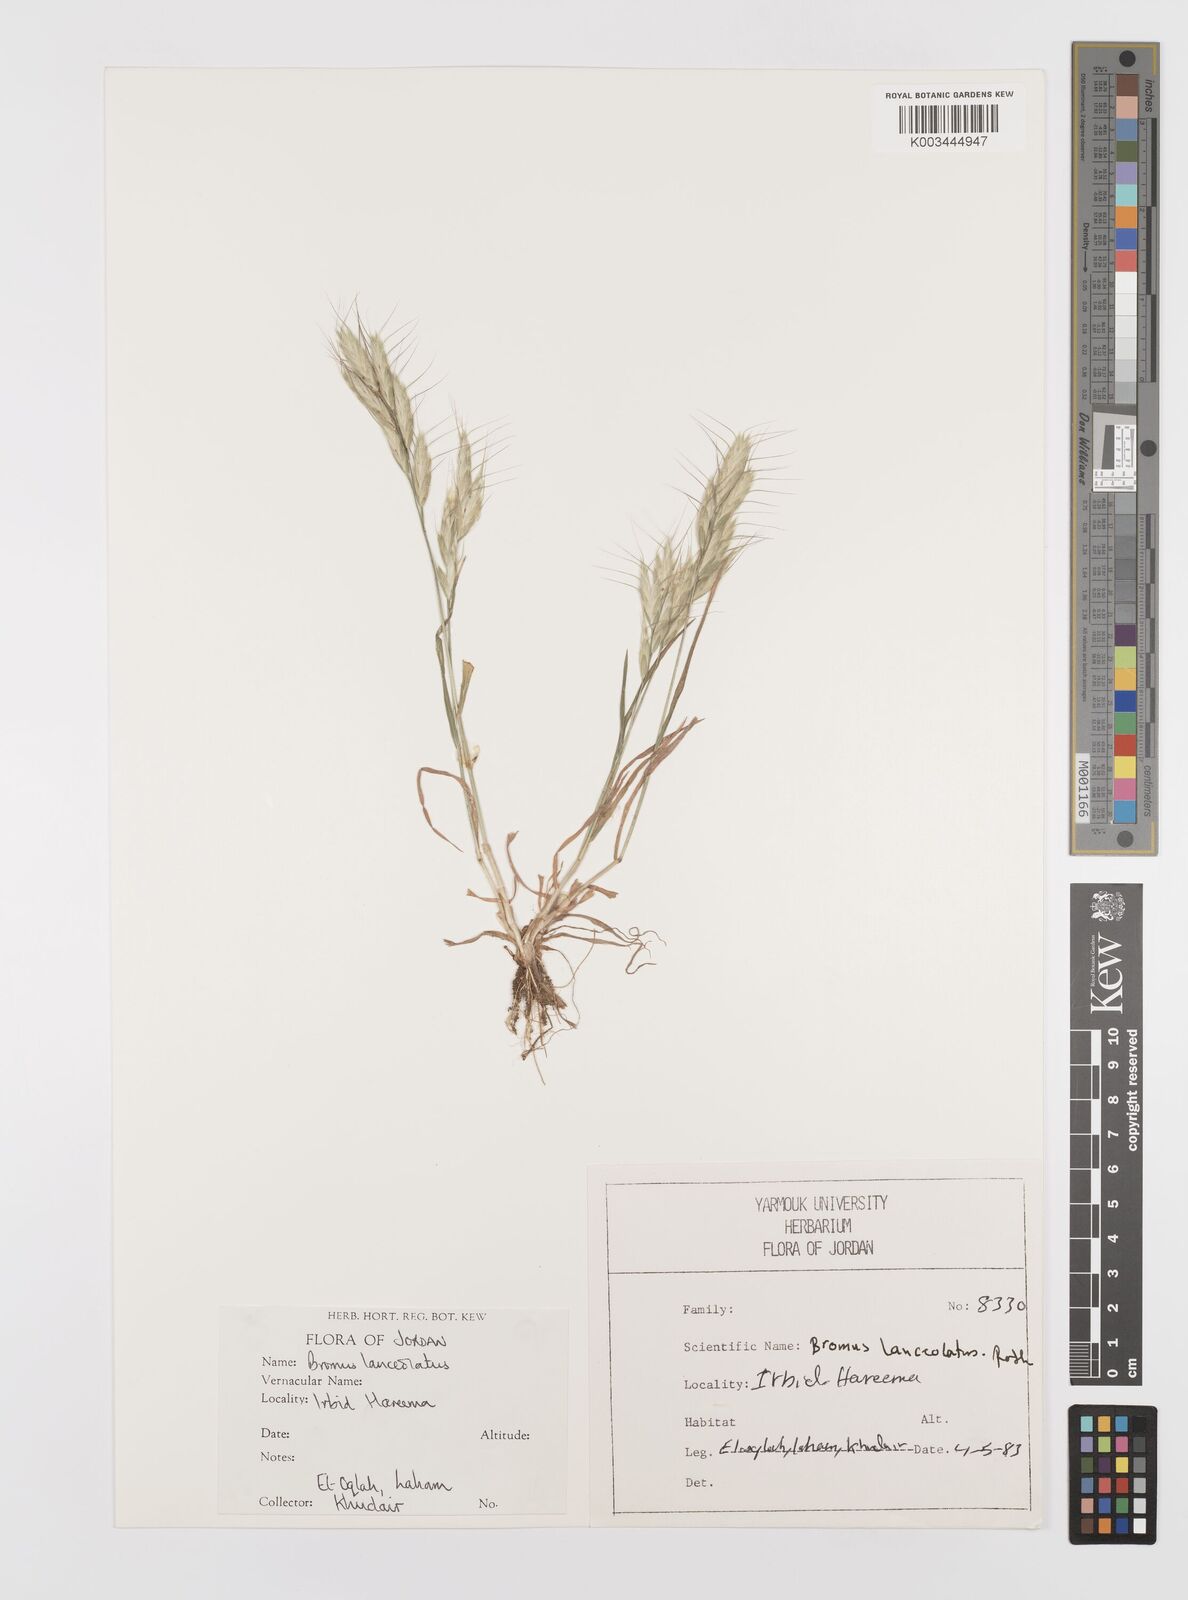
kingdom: Plantae
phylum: Tracheophyta
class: Liliopsida
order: Poales
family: Poaceae
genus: Bromus
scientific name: Bromus lanceolatus
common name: Mediterranean brome
